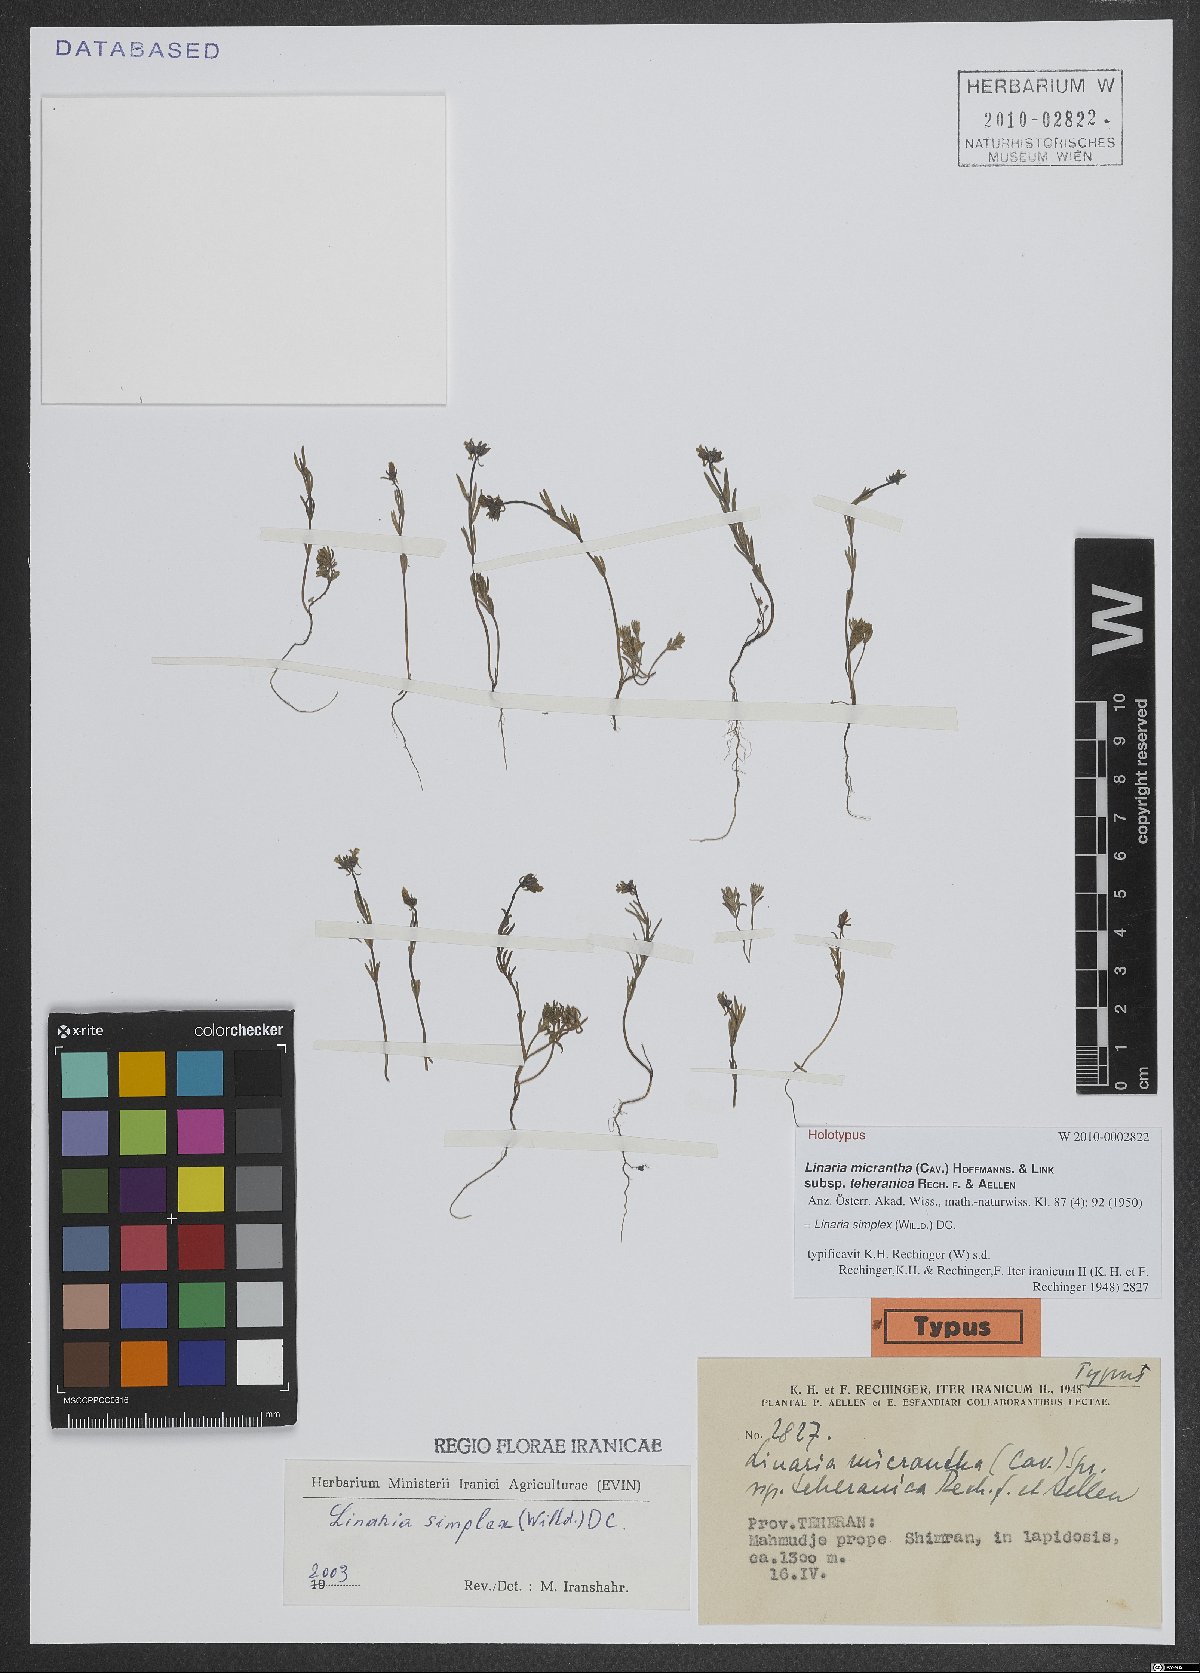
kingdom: Plantae
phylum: Tracheophyta
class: Magnoliopsida
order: Lamiales
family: Plantaginaceae
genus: Linaria
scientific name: Linaria simplex
